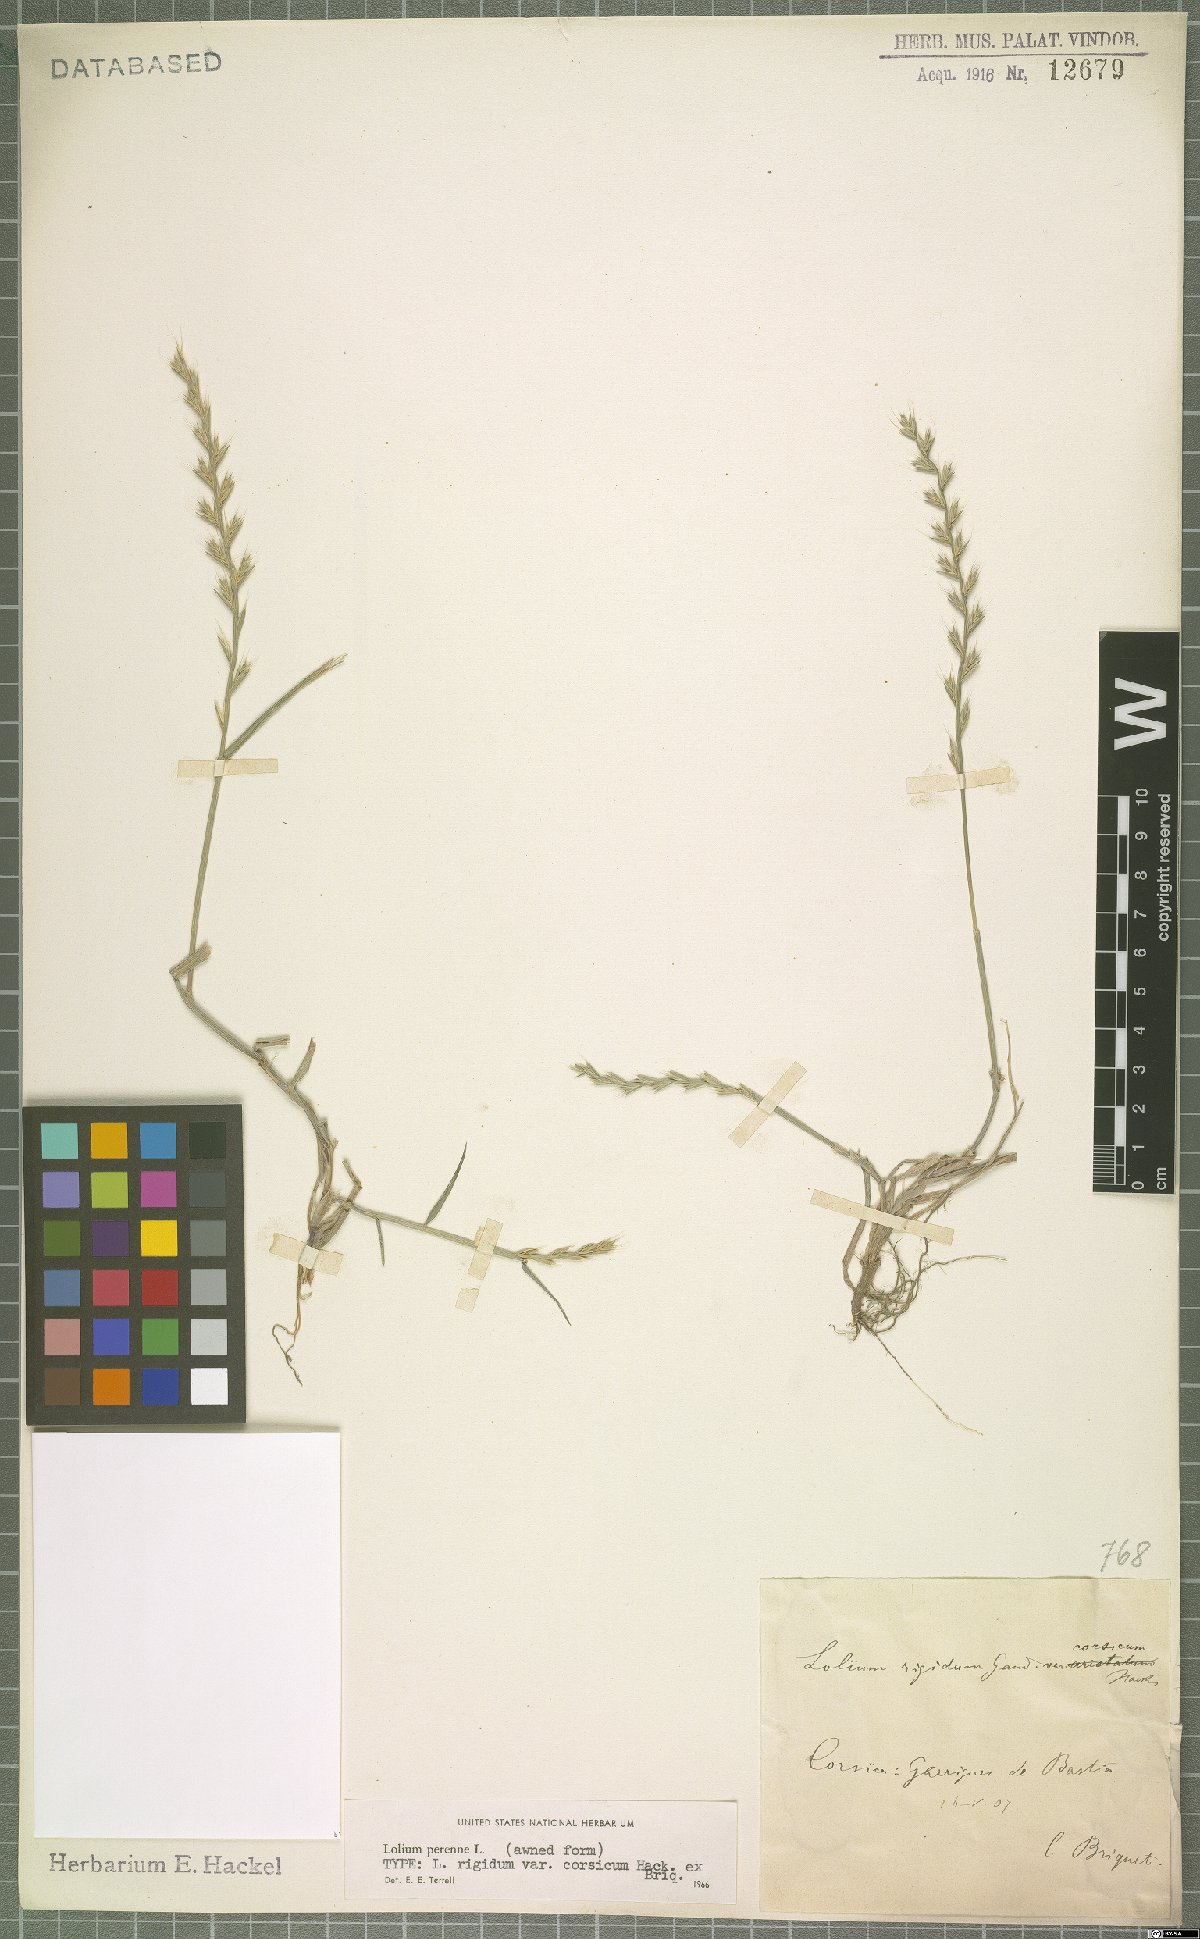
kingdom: Plantae
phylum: Tracheophyta
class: Liliopsida
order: Poales
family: Poaceae
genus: Lolium
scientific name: Lolium perenne
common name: Perennial ryegrass
